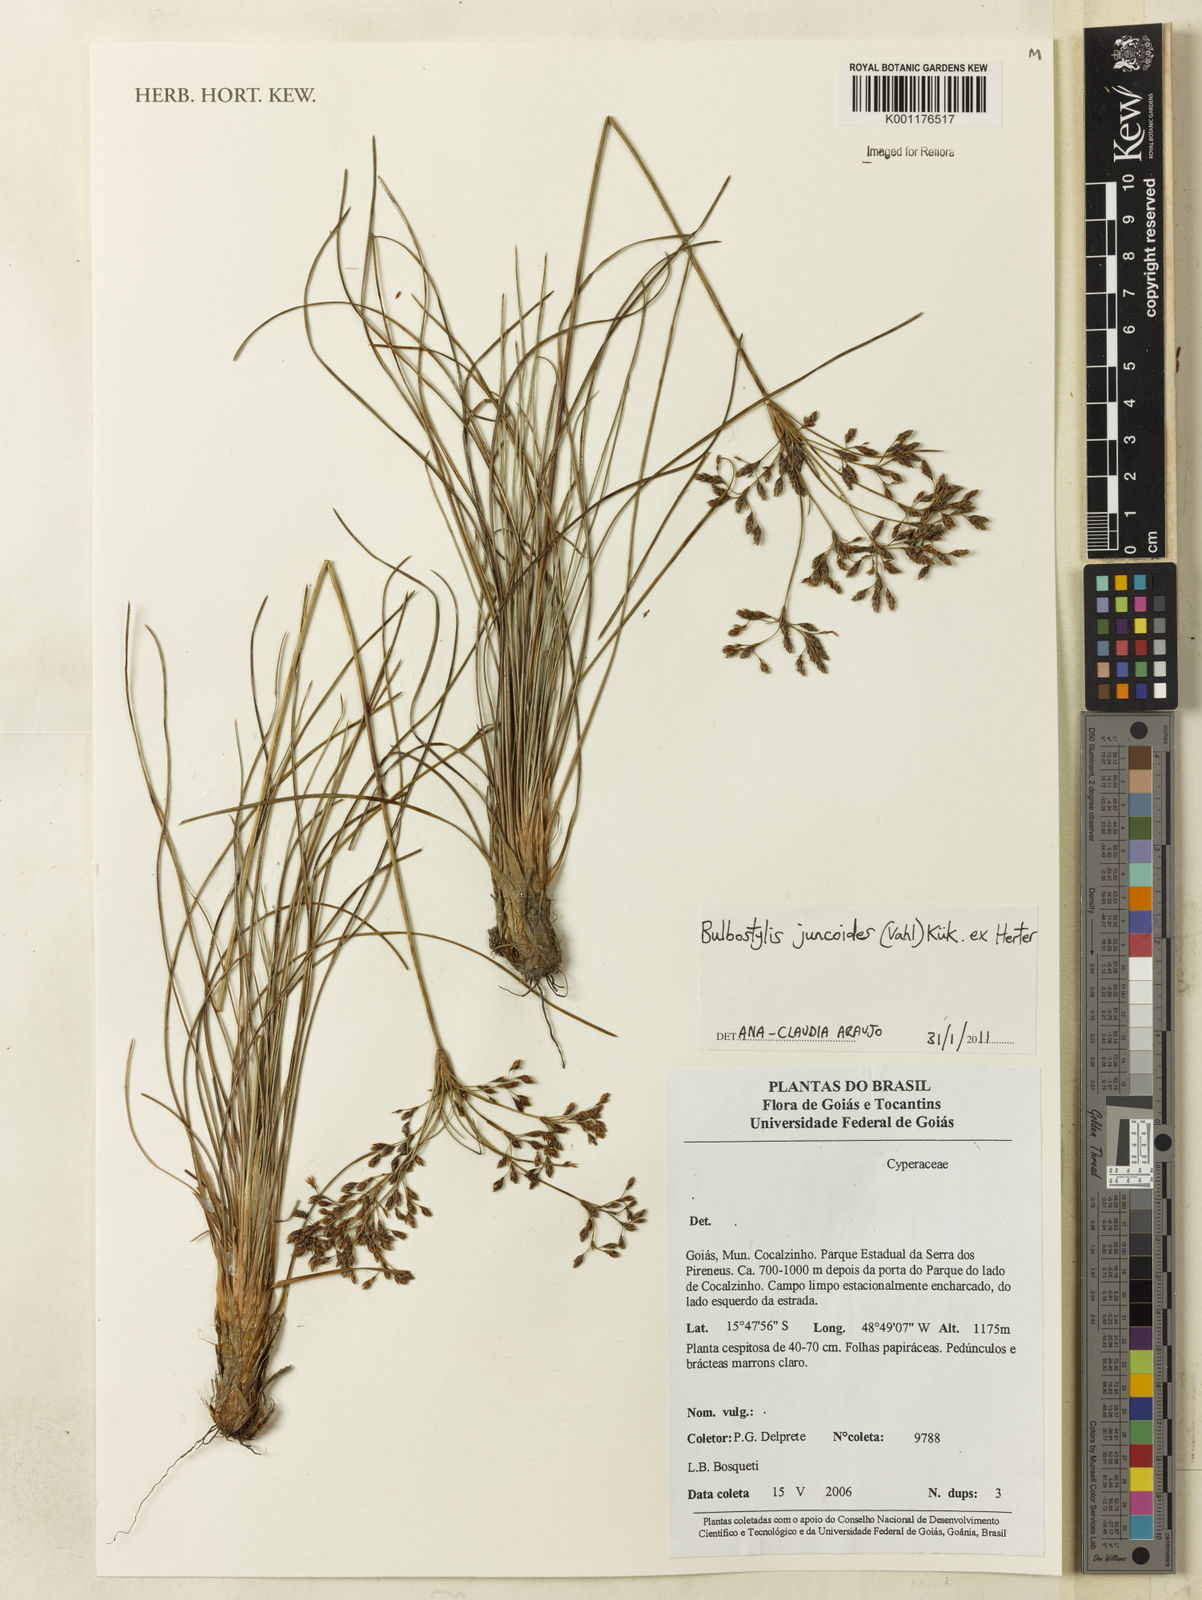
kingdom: Plantae
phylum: Tracheophyta
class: Liliopsida
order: Poales
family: Cyperaceae
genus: Bulbostylis
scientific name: Bulbostylis juncoides
